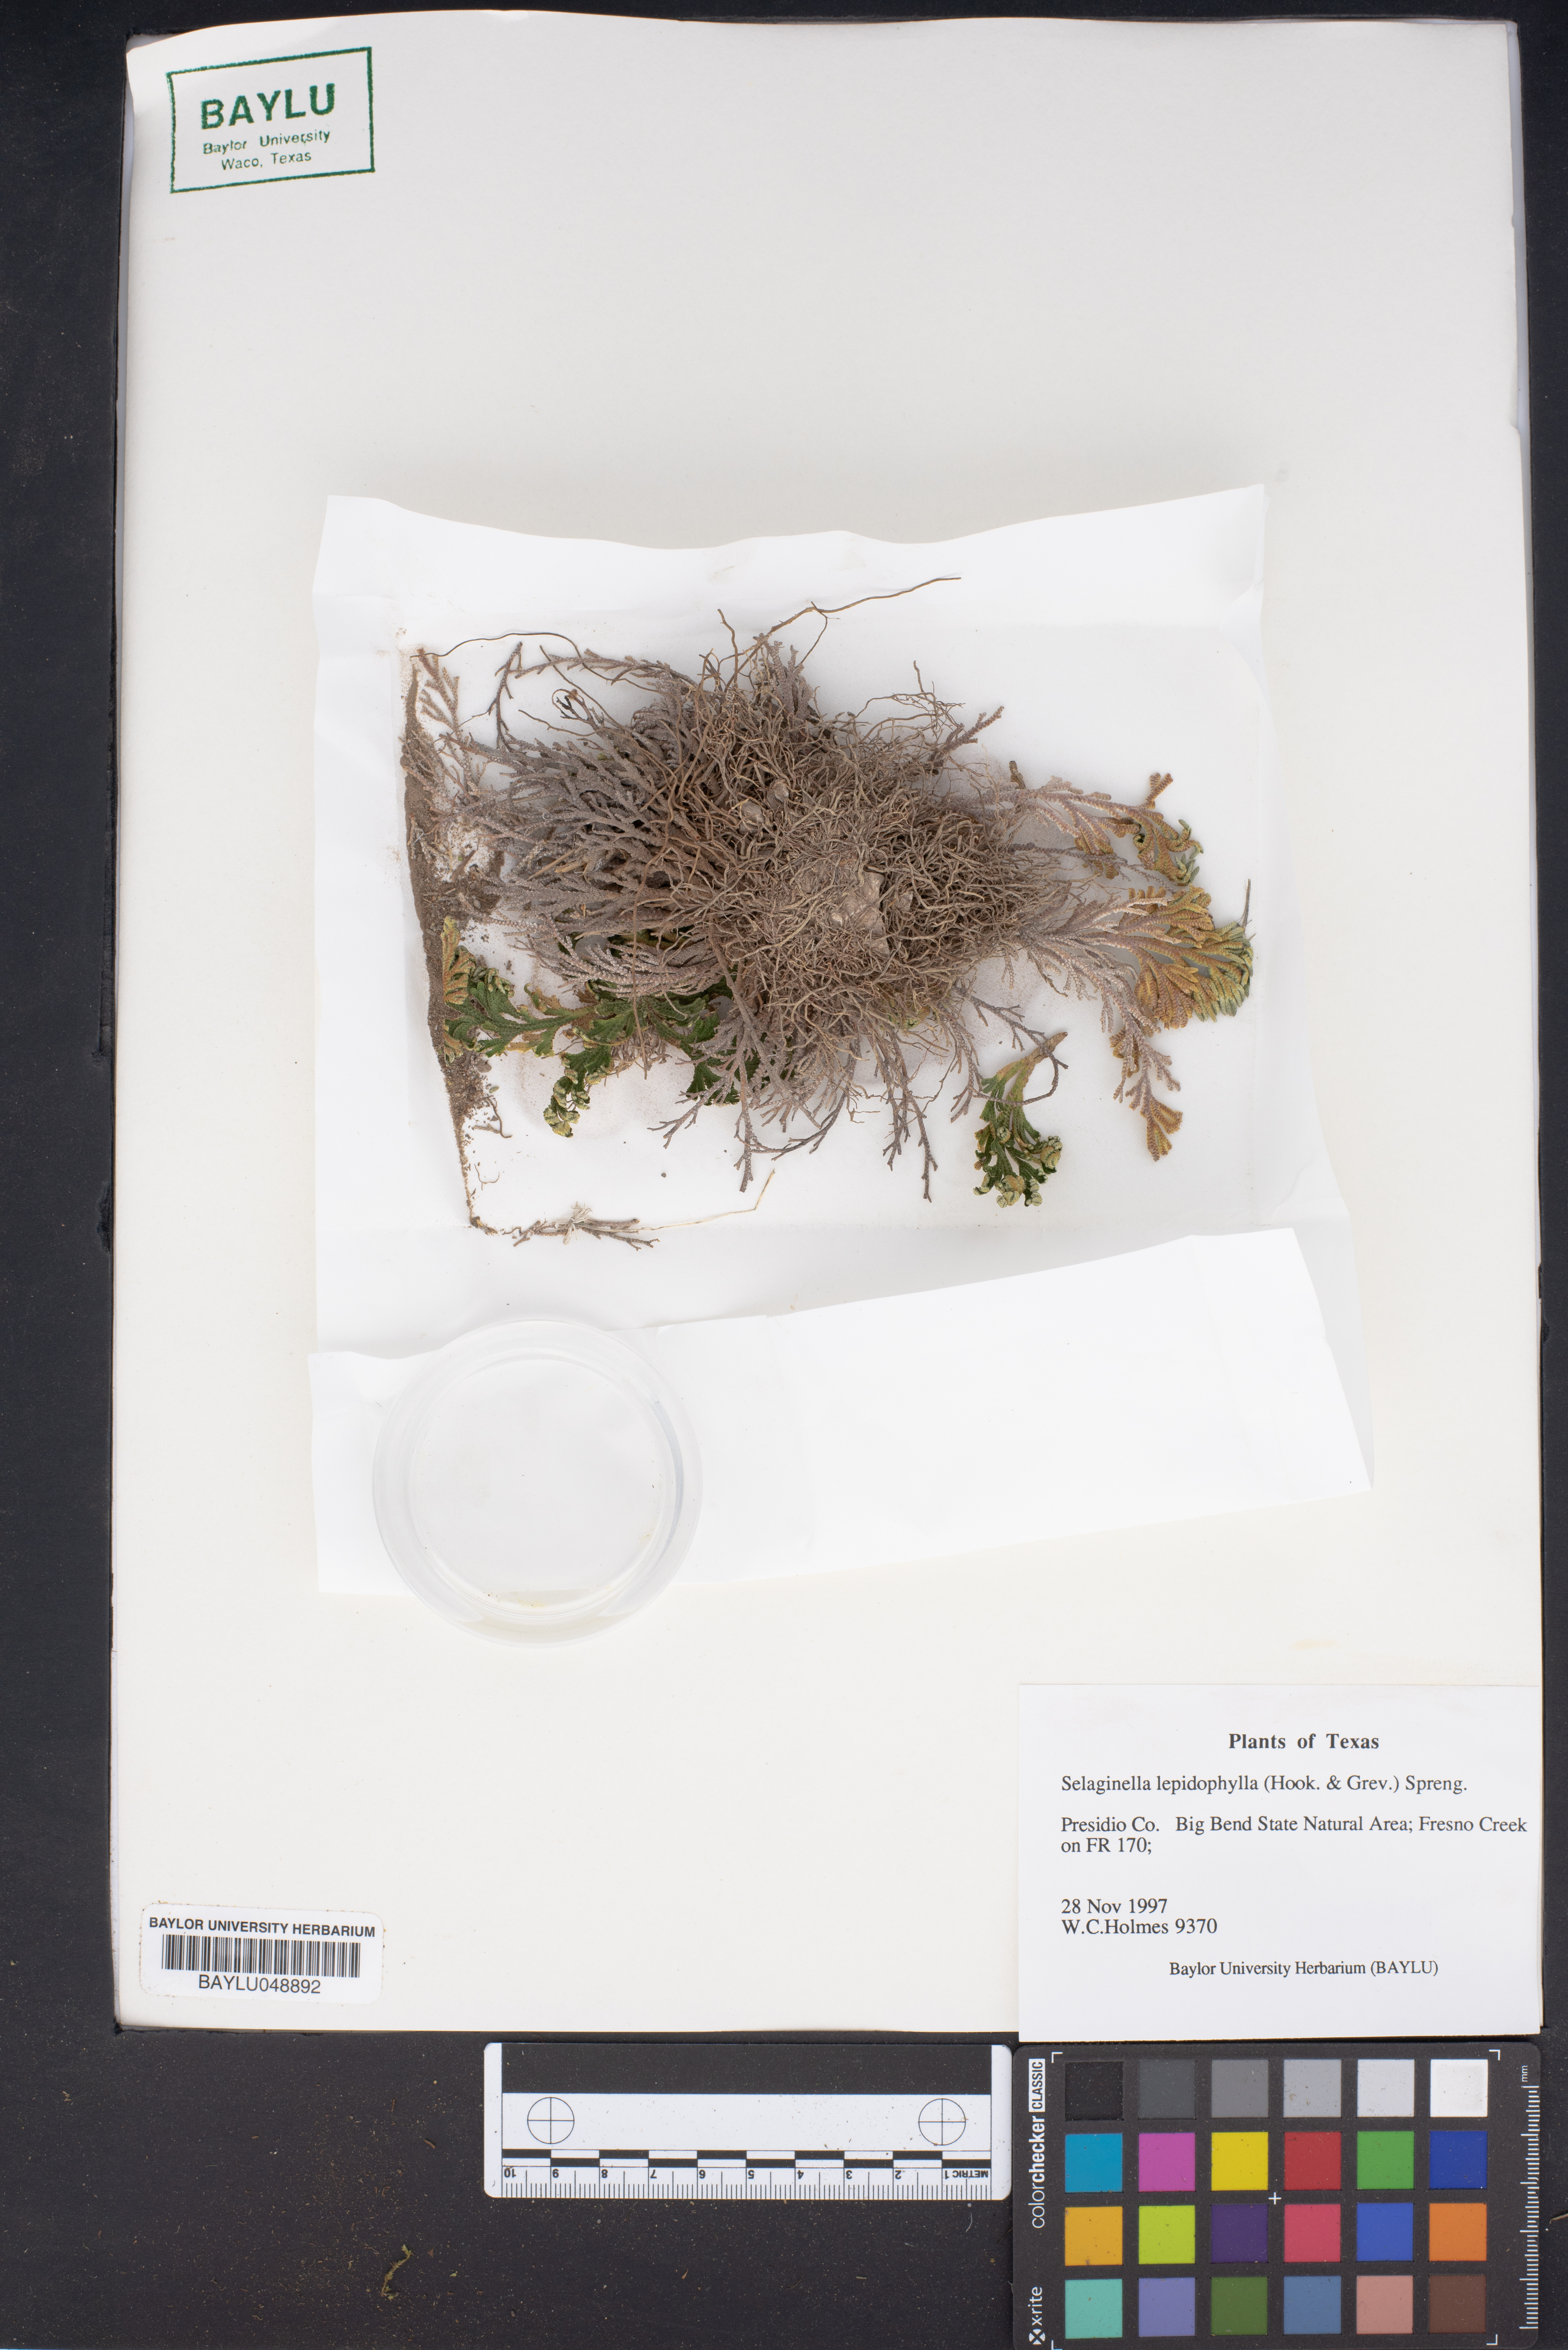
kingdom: Plantae
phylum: Tracheophyta
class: Lycopodiopsida
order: Selaginellales
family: Selaginellaceae
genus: Selaginella
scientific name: Selaginella lepidophylla
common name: Rose-of-jericho
